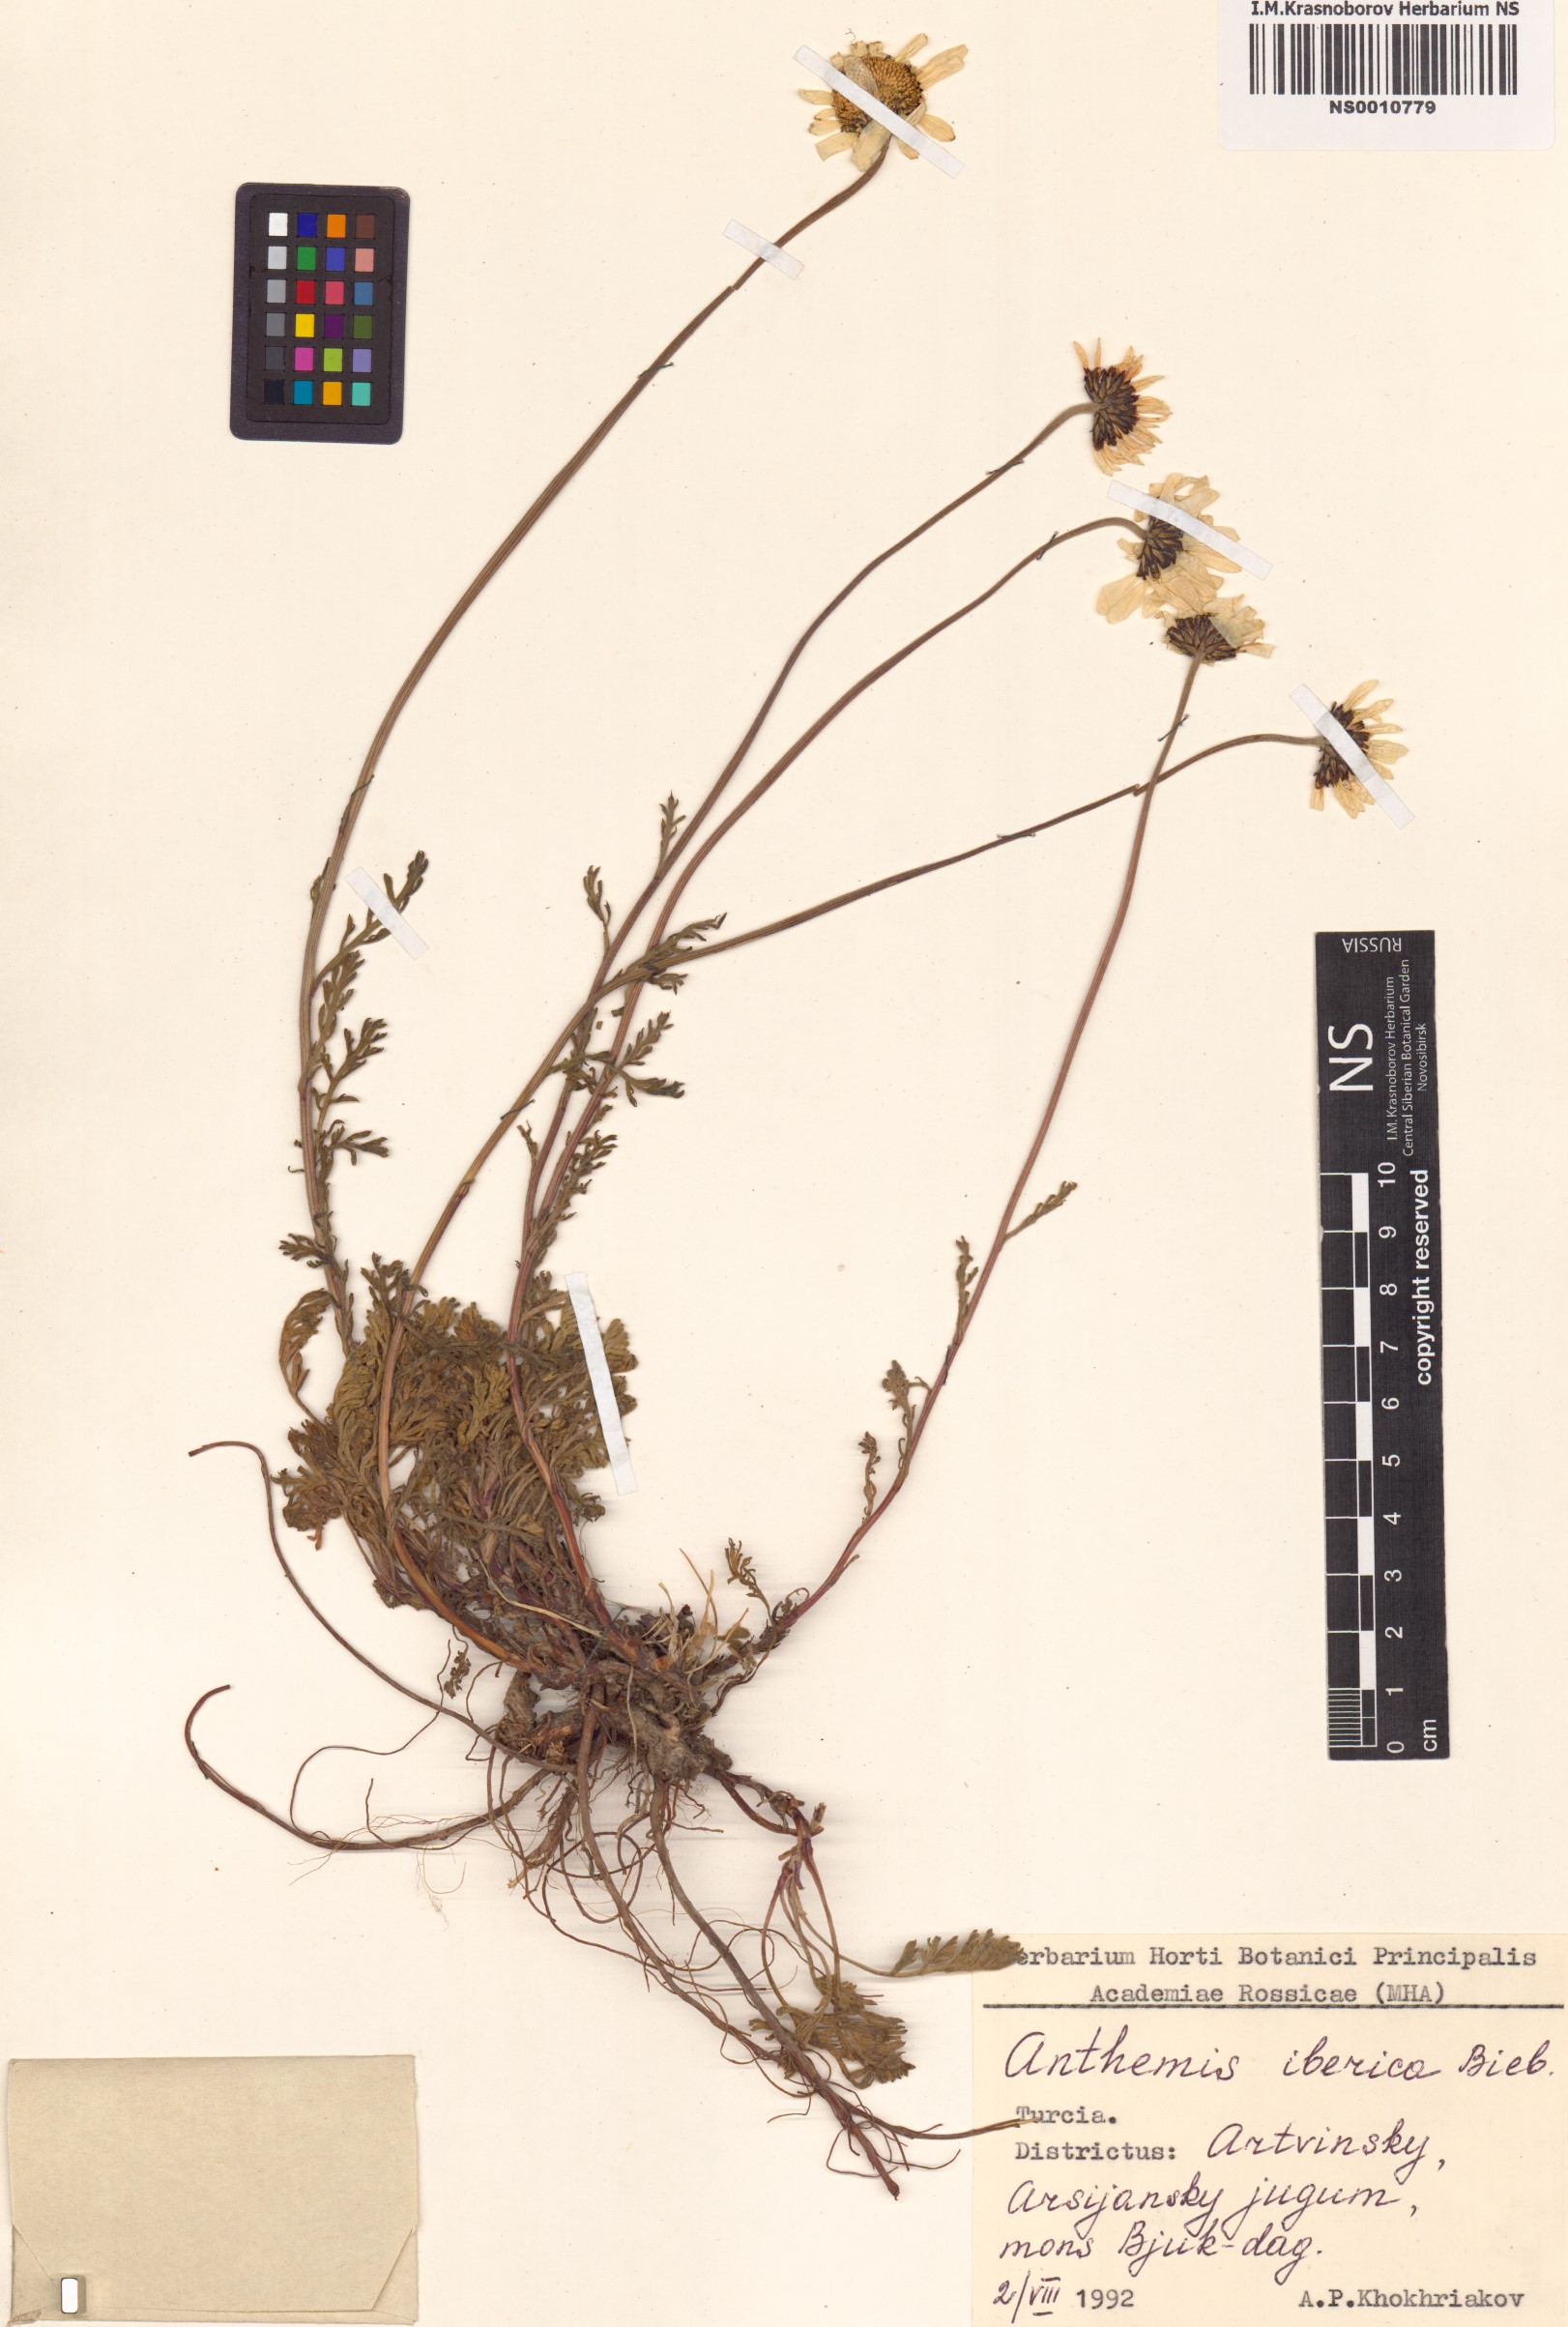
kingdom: Plantae
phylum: Tracheophyta
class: Magnoliopsida
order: Asterales
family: Asteraceae
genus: Anthemis
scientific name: Anthemis cretica
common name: Mountain dog-daisy
